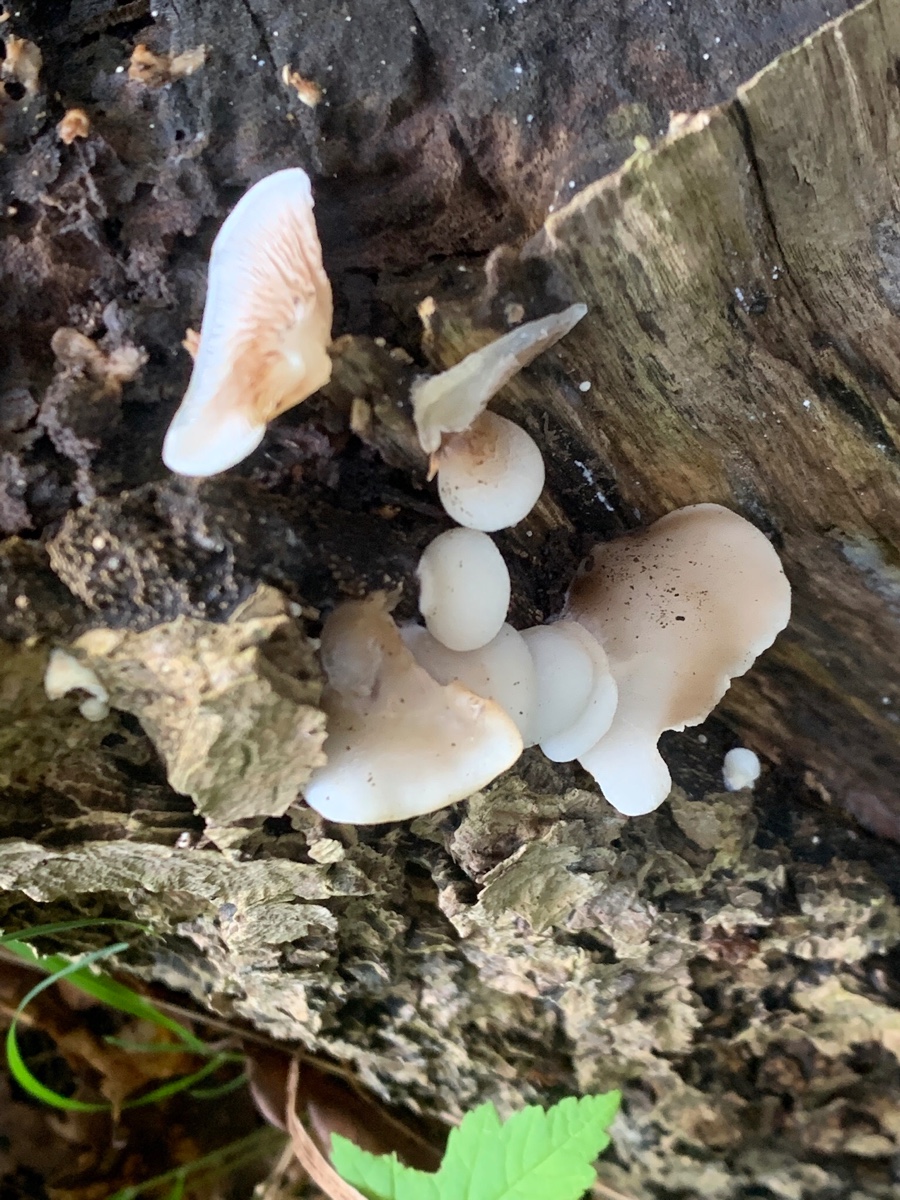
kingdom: Fungi
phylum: Basidiomycota
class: Agaricomycetes
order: Agaricales
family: Crepidotaceae
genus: Crepidotus
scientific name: Crepidotus mollis
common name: blød muslingesvamp
